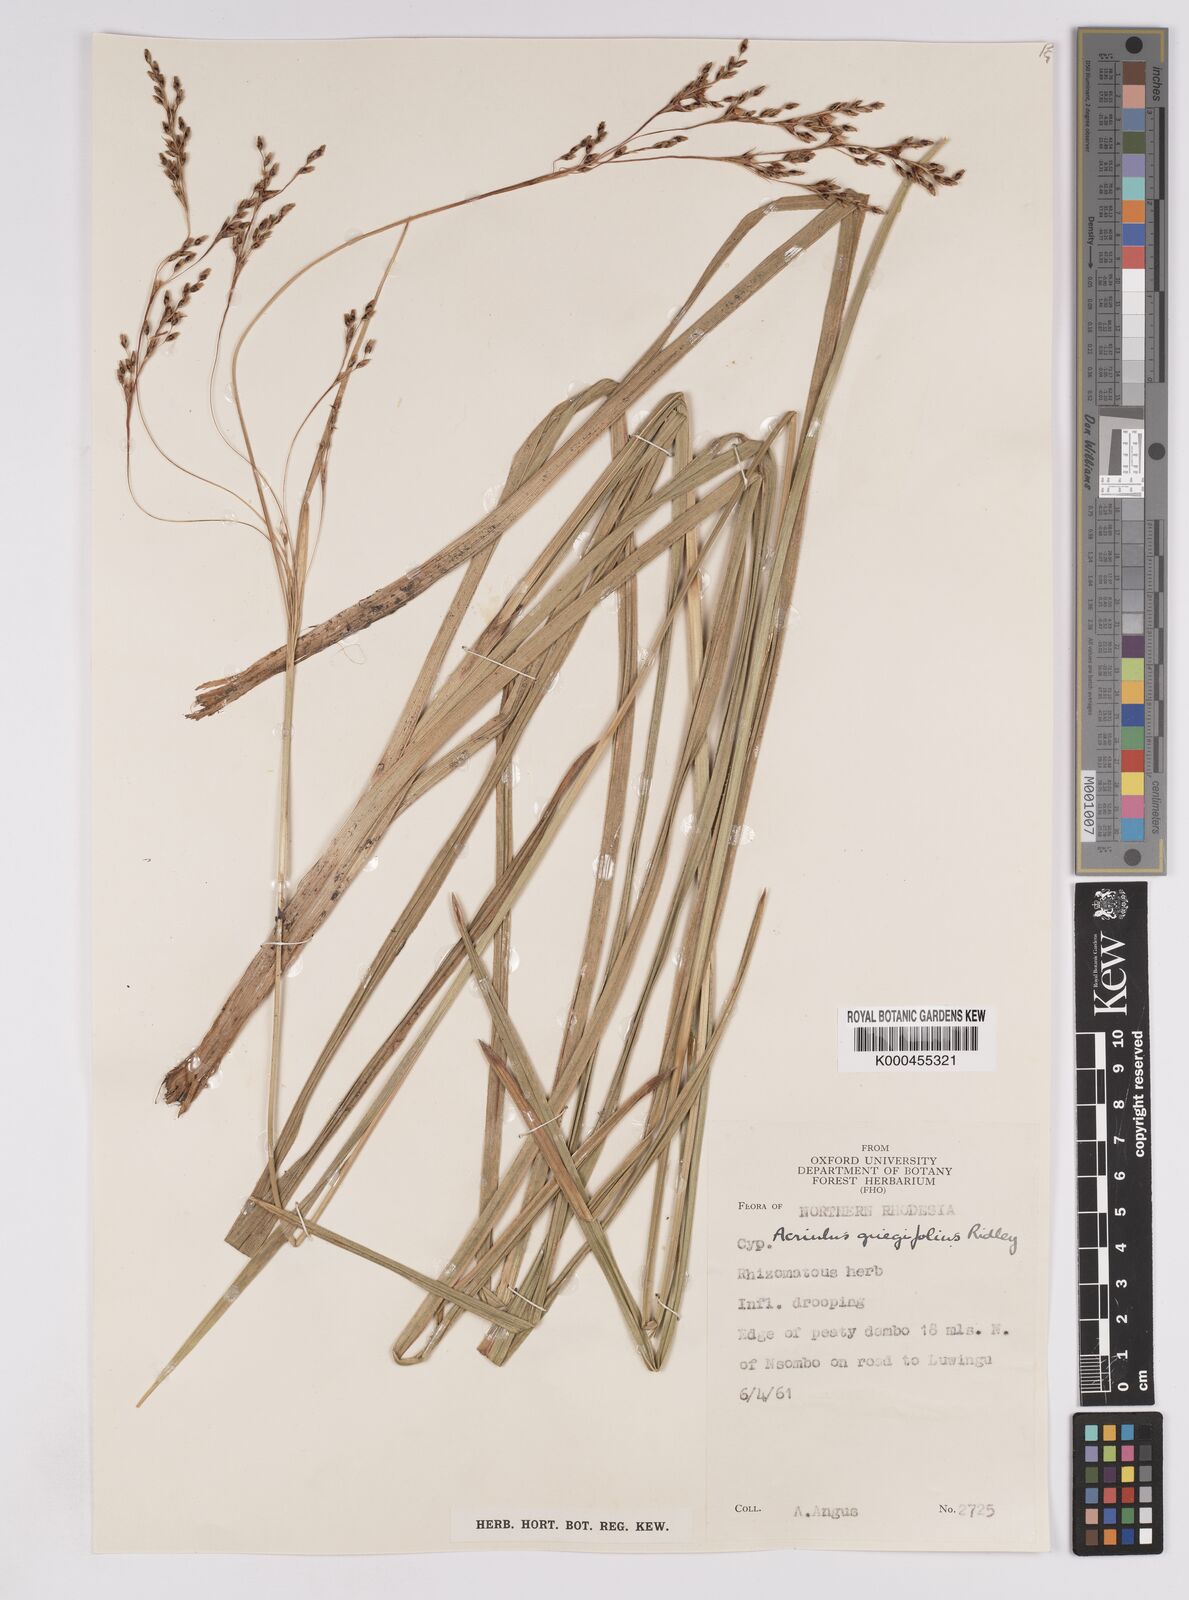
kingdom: Plantae
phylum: Tracheophyta
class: Liliopsida
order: Poales
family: Cyperaceae
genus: Scleria
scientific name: Scleria greigiifolia
